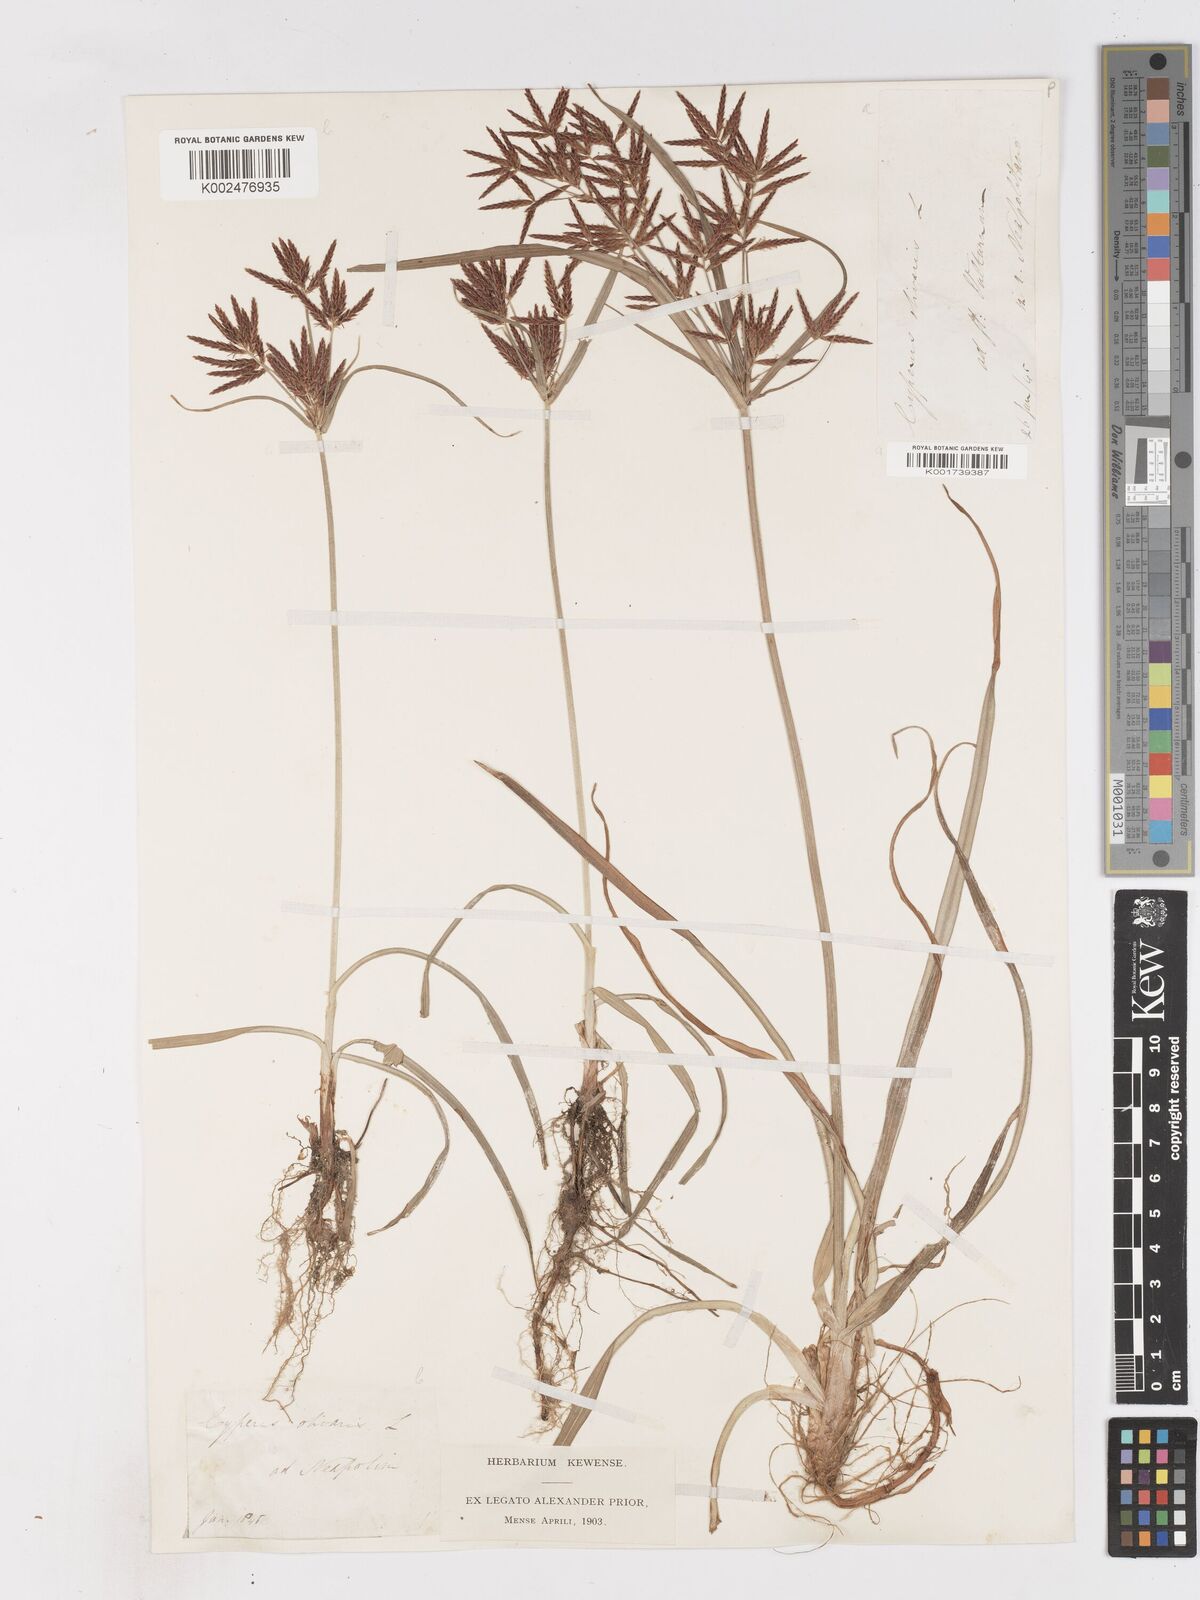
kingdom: Plantae
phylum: Tracheophyta
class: Liliopsida
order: Poales
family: Cyperaceae
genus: Cyperus
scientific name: Cyperus rotundus
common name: Nutgrass
